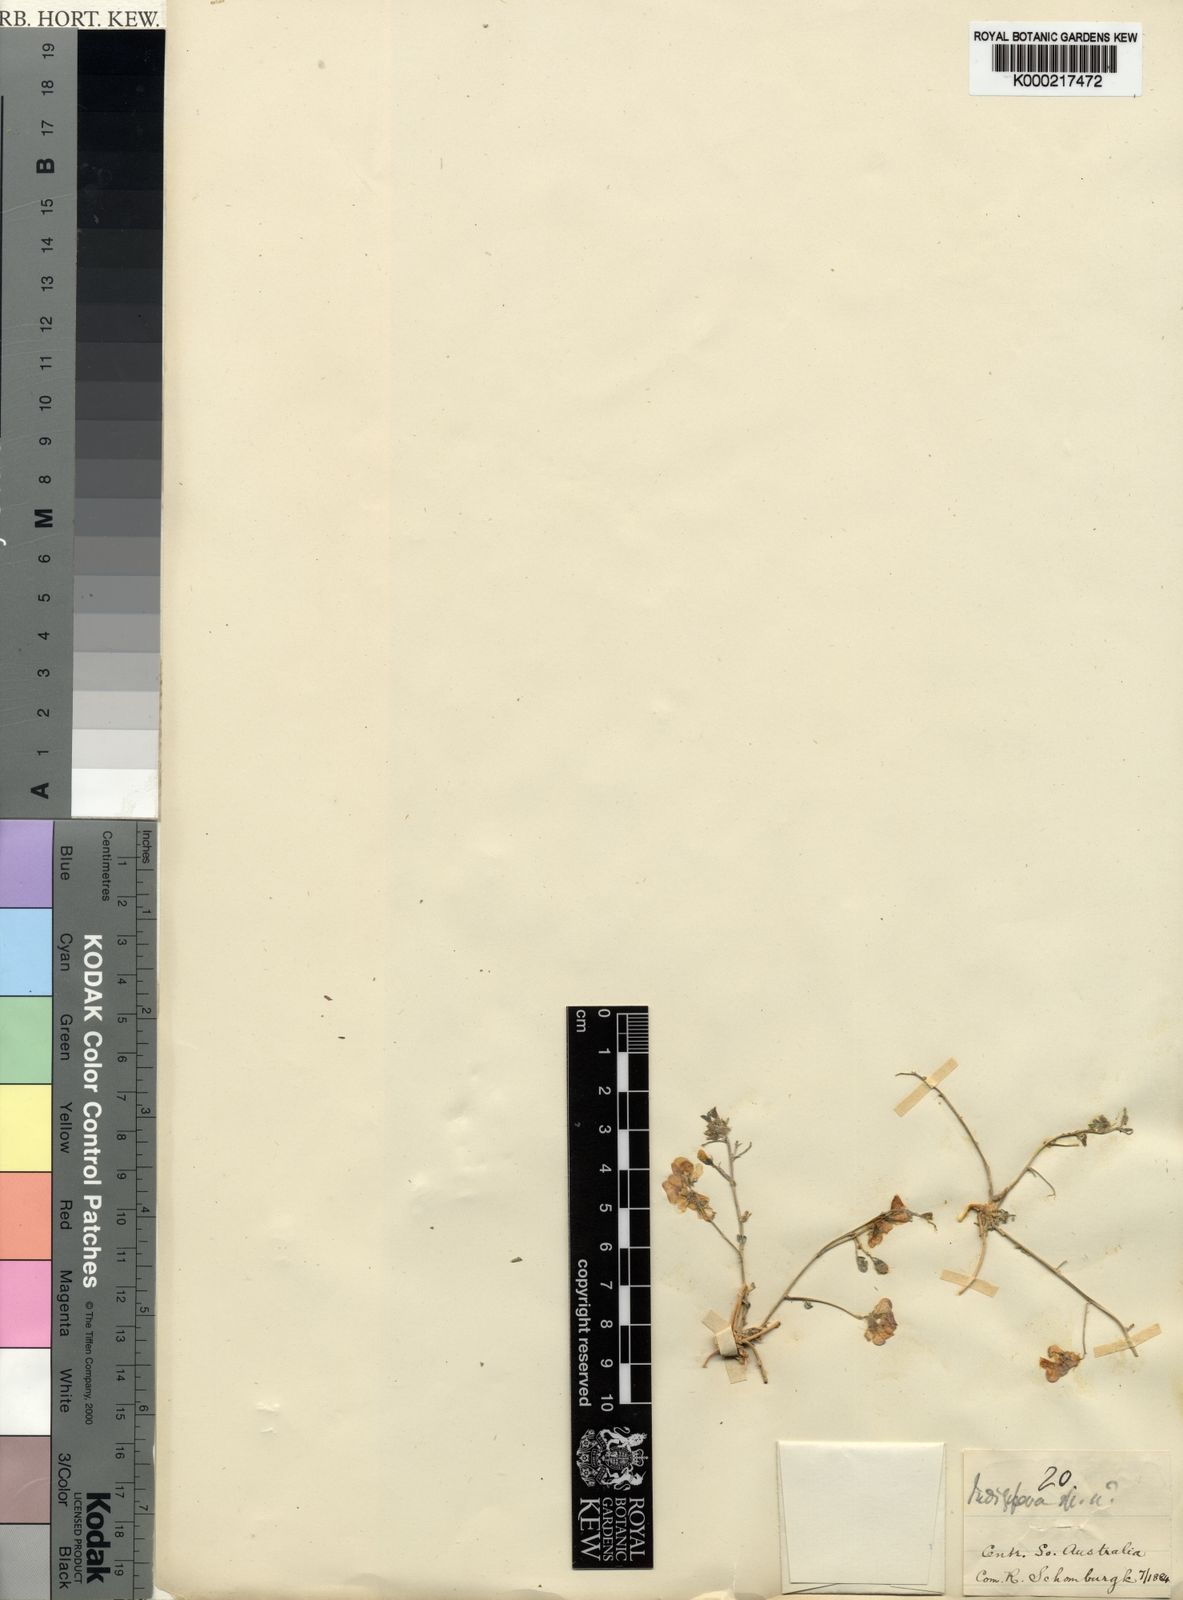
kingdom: Plantae
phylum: Tracheophyta
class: Magnoliopsida
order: Fabales
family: Fabaceae
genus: Indigofera
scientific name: Indigofera
